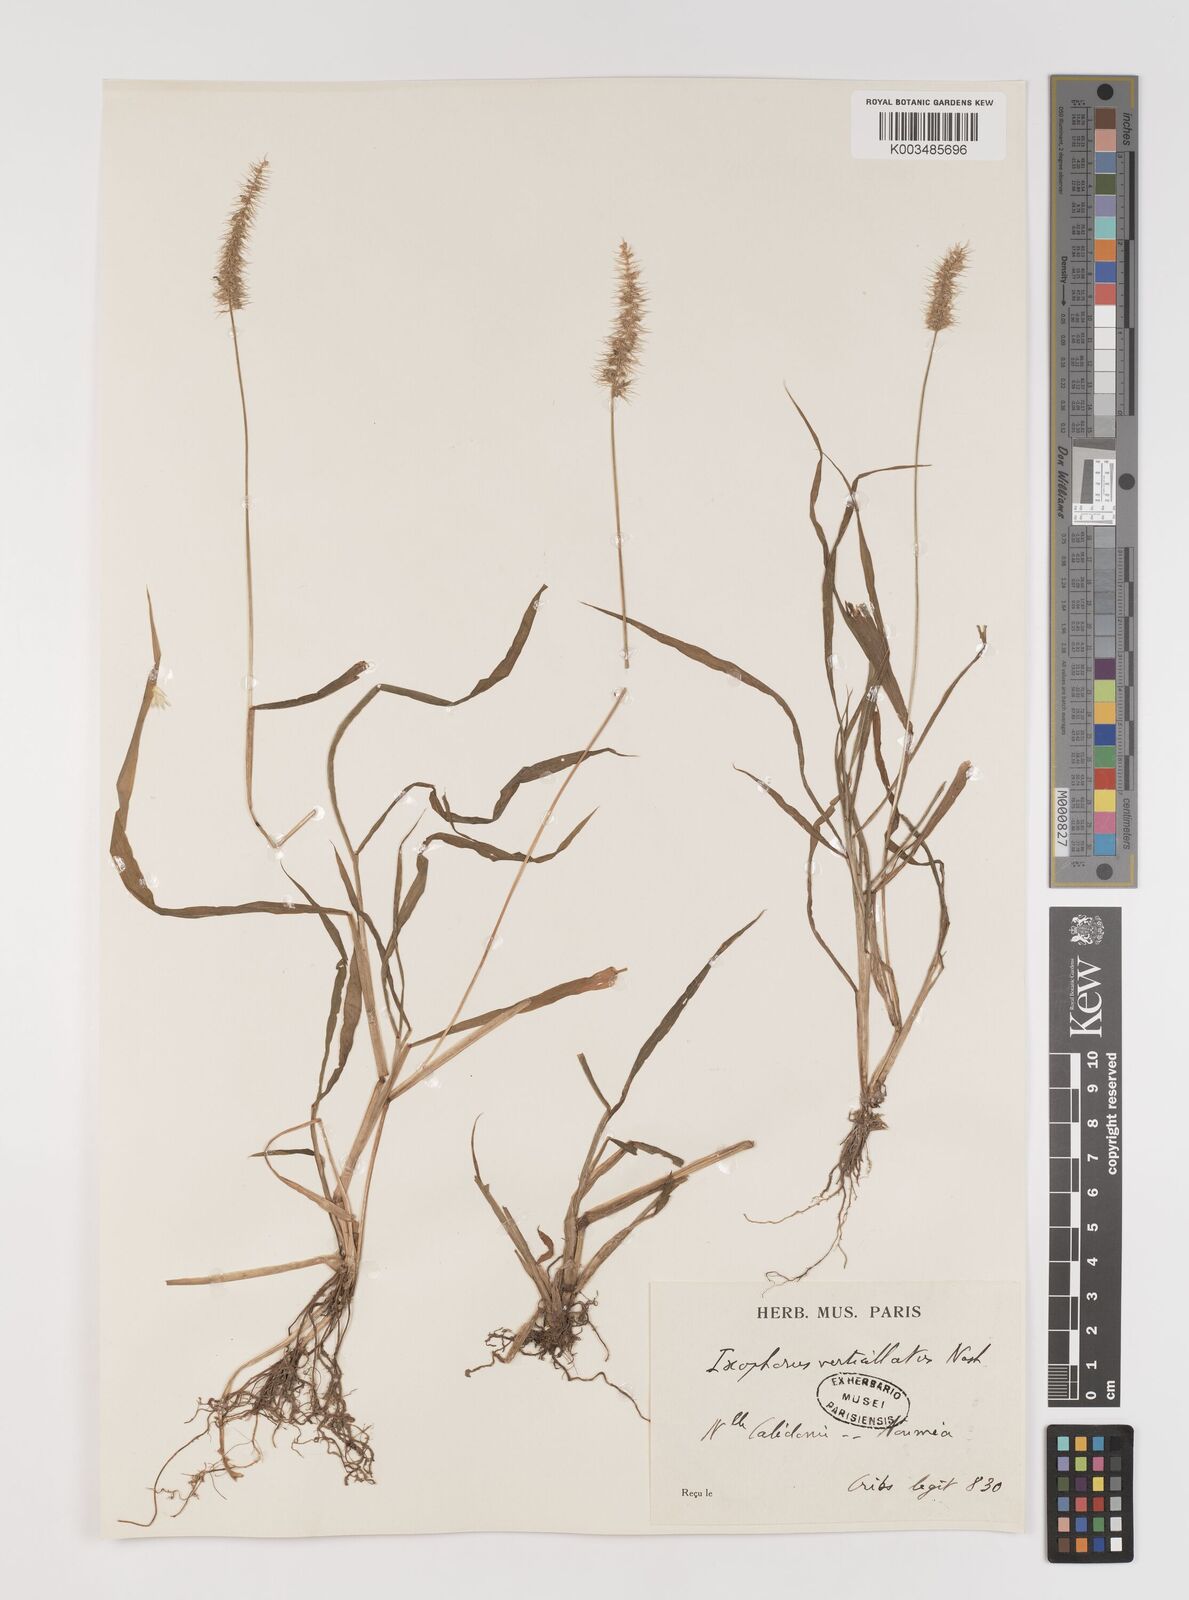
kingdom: Plantae
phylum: Tracheophyta
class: Liliopsida
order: Poales
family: Poaceae
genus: Setaria
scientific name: Setaria verticillata
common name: Hooked bristlegrass
